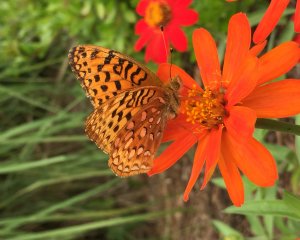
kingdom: Animalia
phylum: Arthropoda
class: Insecta
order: Lepidoptera
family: Nymphalidae
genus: Speyeria
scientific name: Speyeria aphrodite
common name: Aphrodite Fritillary
